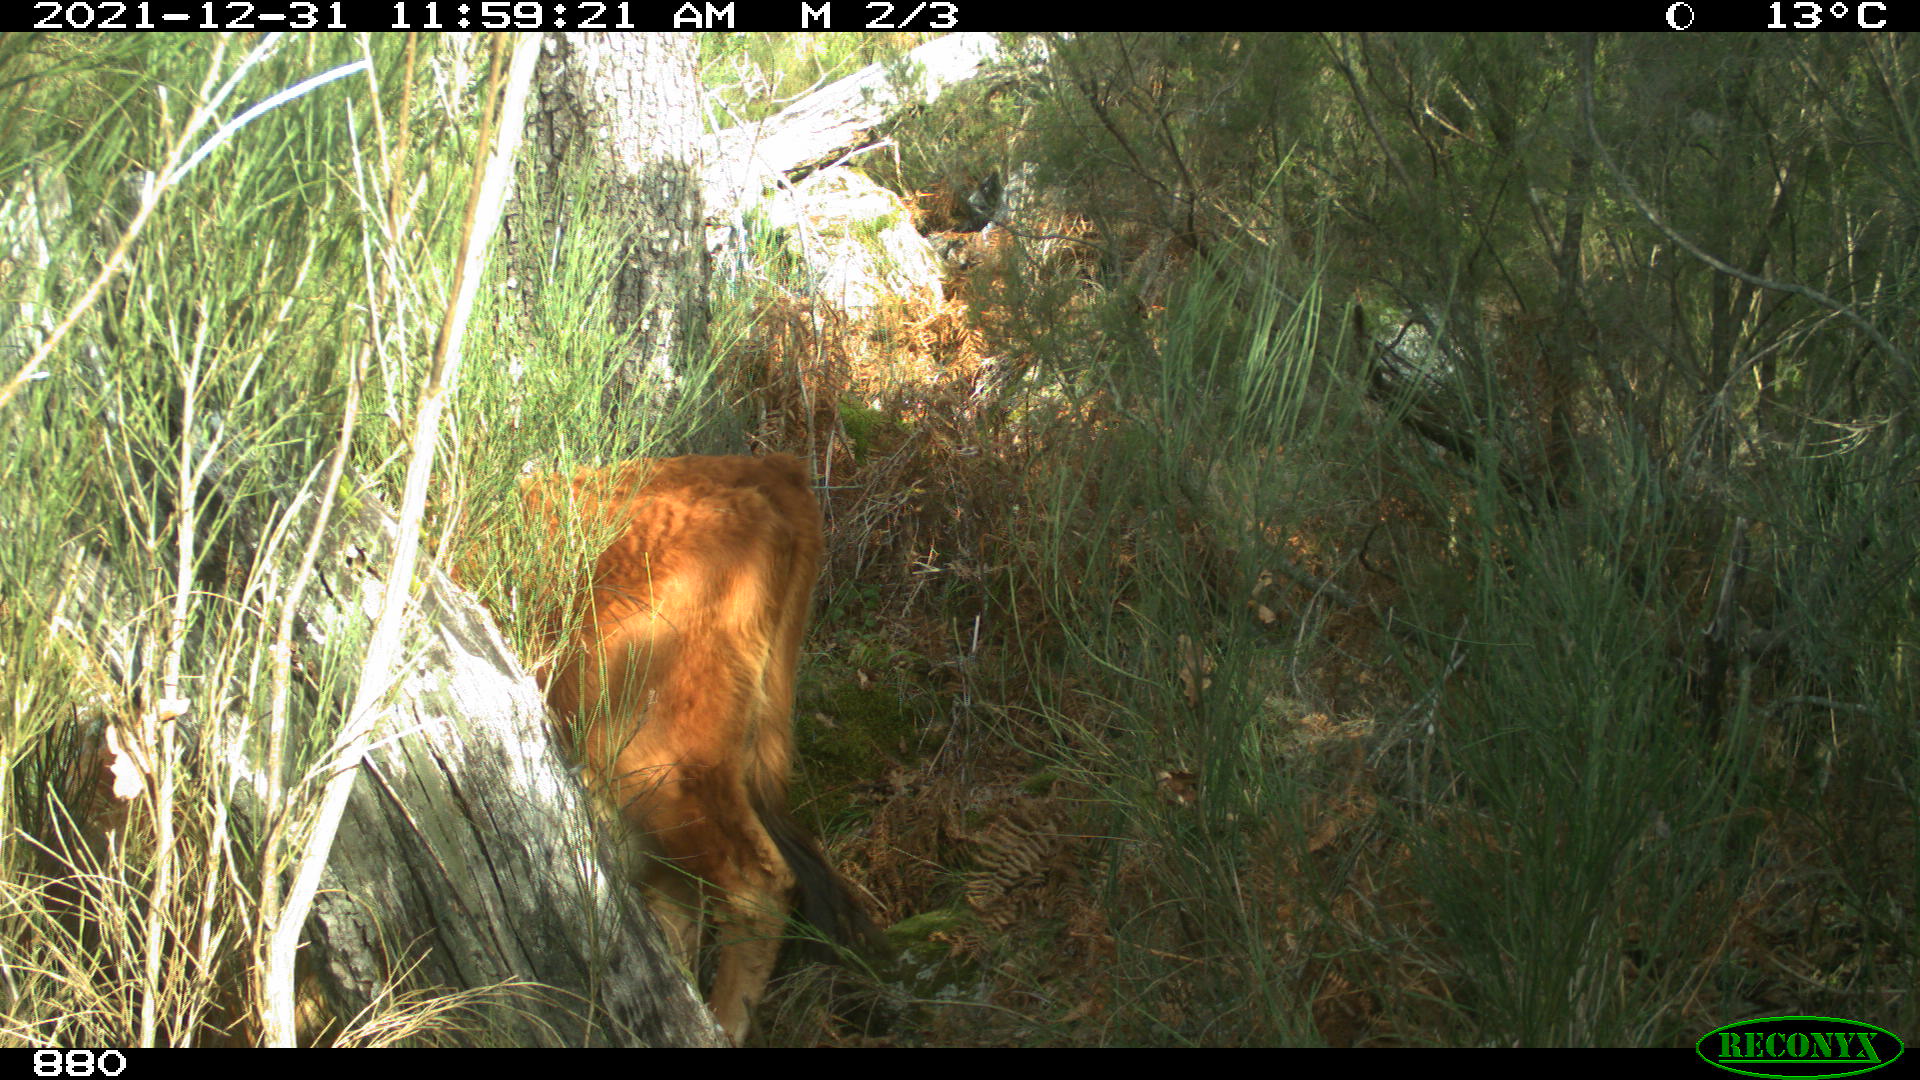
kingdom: Animalia
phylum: Chordata
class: Mammalia
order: Artiodactyla
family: Bovidae
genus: Bos
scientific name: Bos taurus
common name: Domesticated cattle
